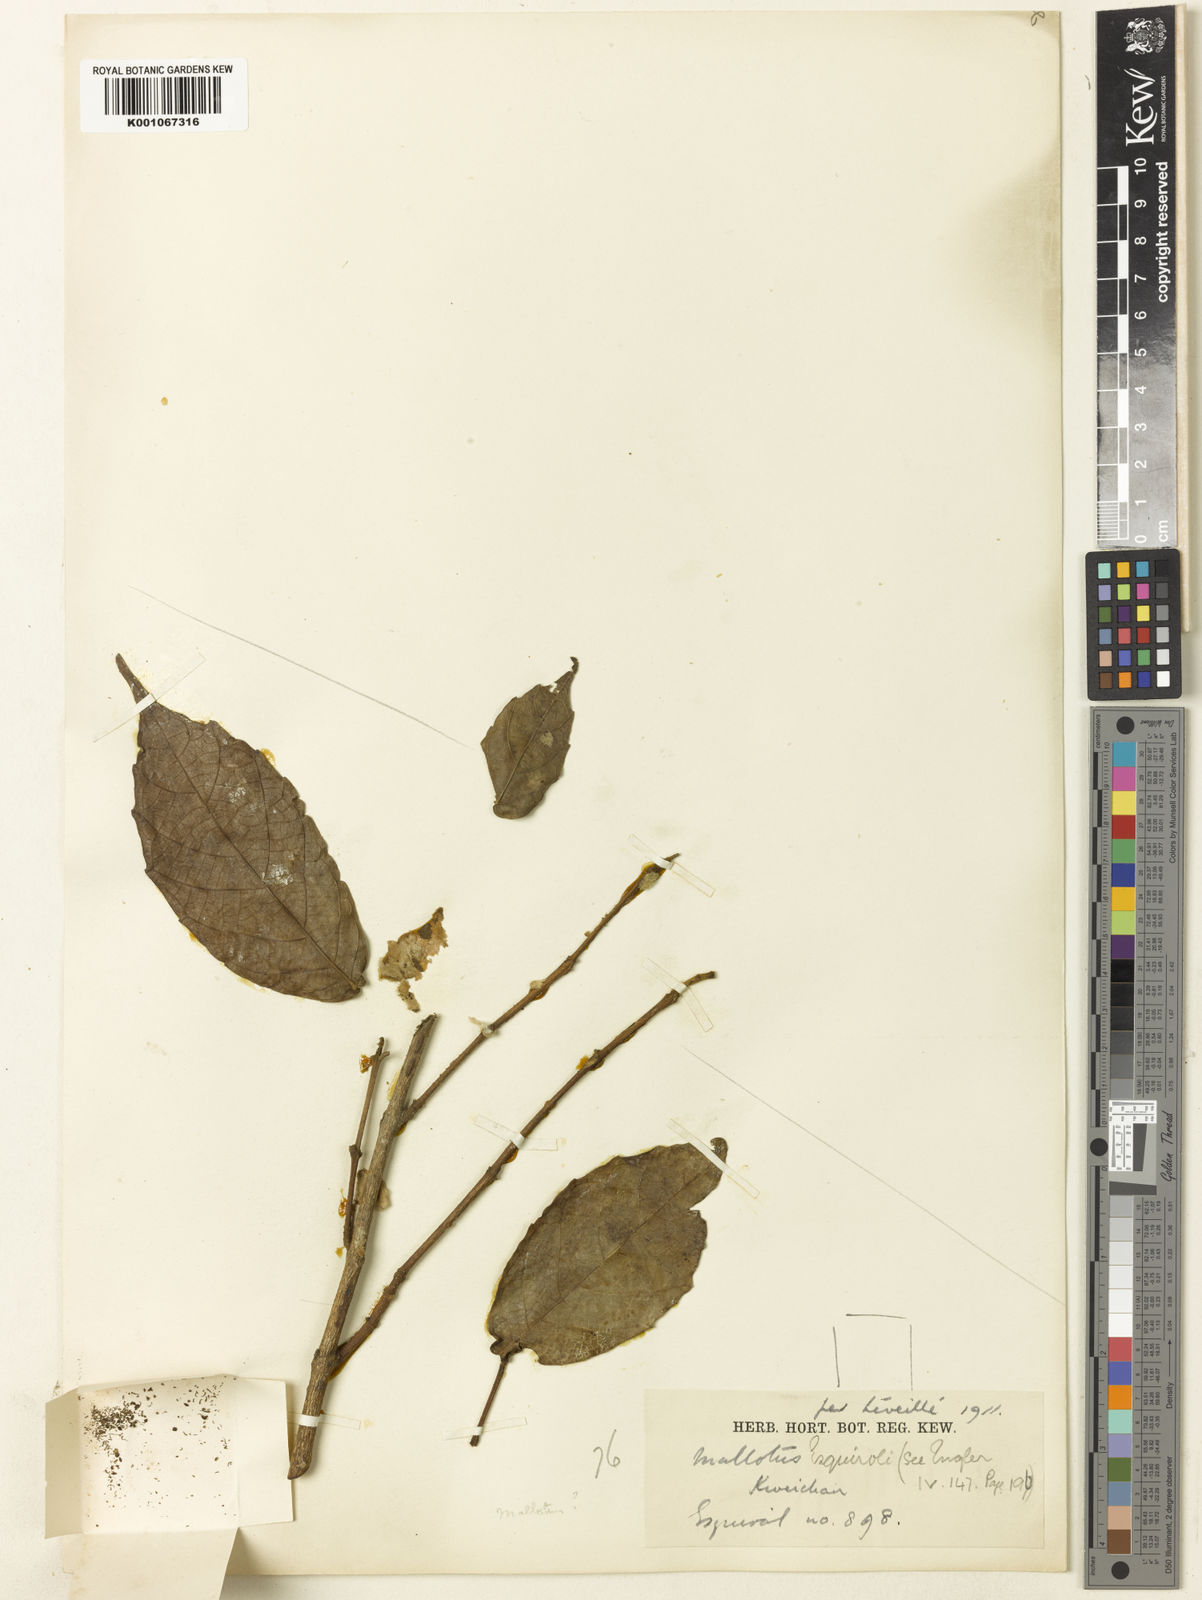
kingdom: Plantae
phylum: Tracheophyta
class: Magnoliopsida
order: Malpighiales
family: Euphorbiaceae
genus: Mallotus
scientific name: Mallotus khasianus
